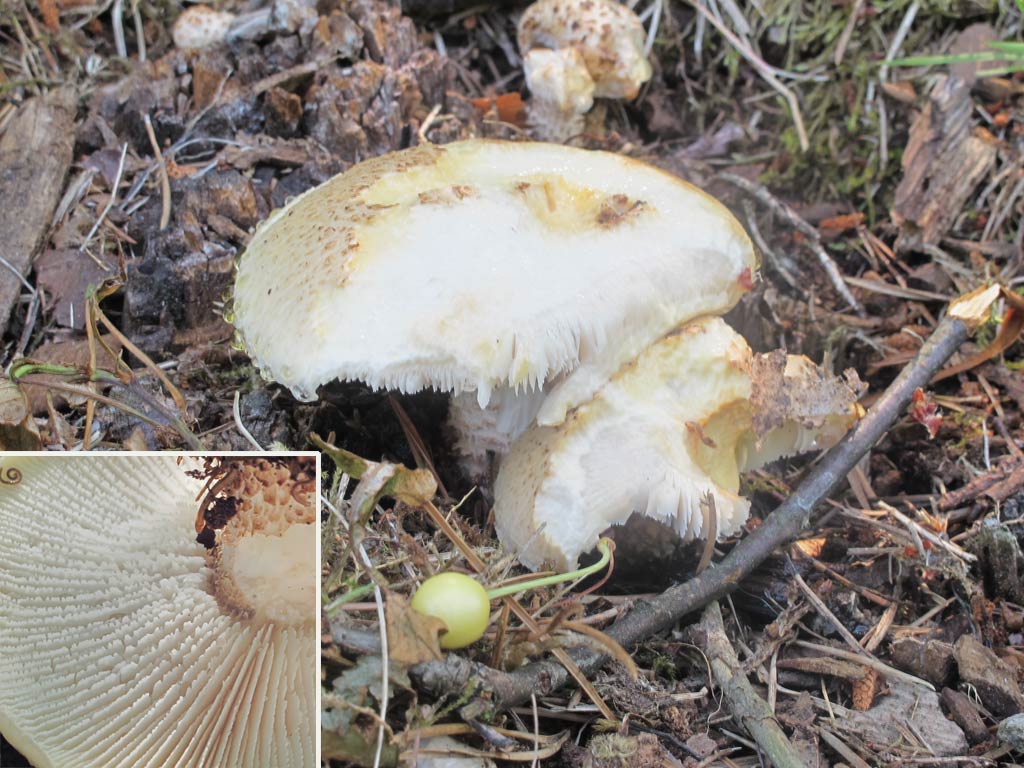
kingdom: Fungi
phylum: Basidiomycota
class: Agaricomycetes
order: Gloeophyllales
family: Gloeophyllaceae
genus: Neolentinus
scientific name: Neolentinus lepideus
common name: skællet sejhat
